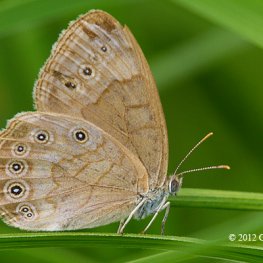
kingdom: Animalia
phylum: Arthropoda
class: Insecta
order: Lepidoptera
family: Nymphalidae
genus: Lethe
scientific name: Lethe eurydice
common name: Eyed Brown
